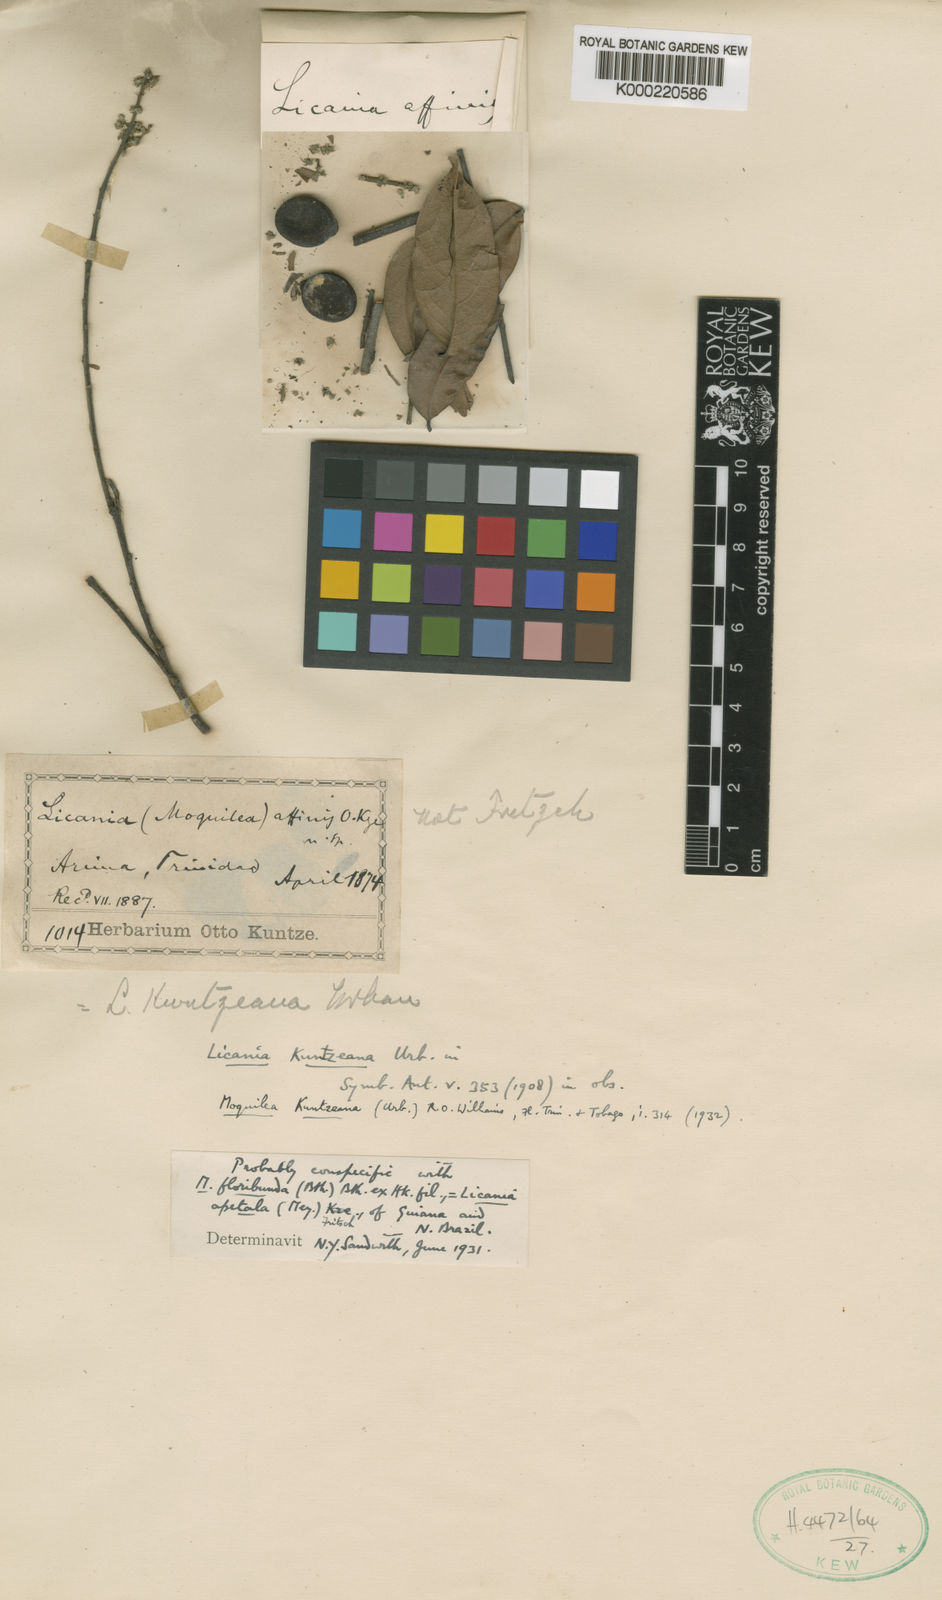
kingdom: Plantae
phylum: Tracheophyta
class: Magnoliopsida
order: Malpighiales
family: Chrysobalanaceae
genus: Leptobalanus
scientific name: Leptobalanus apetalus
